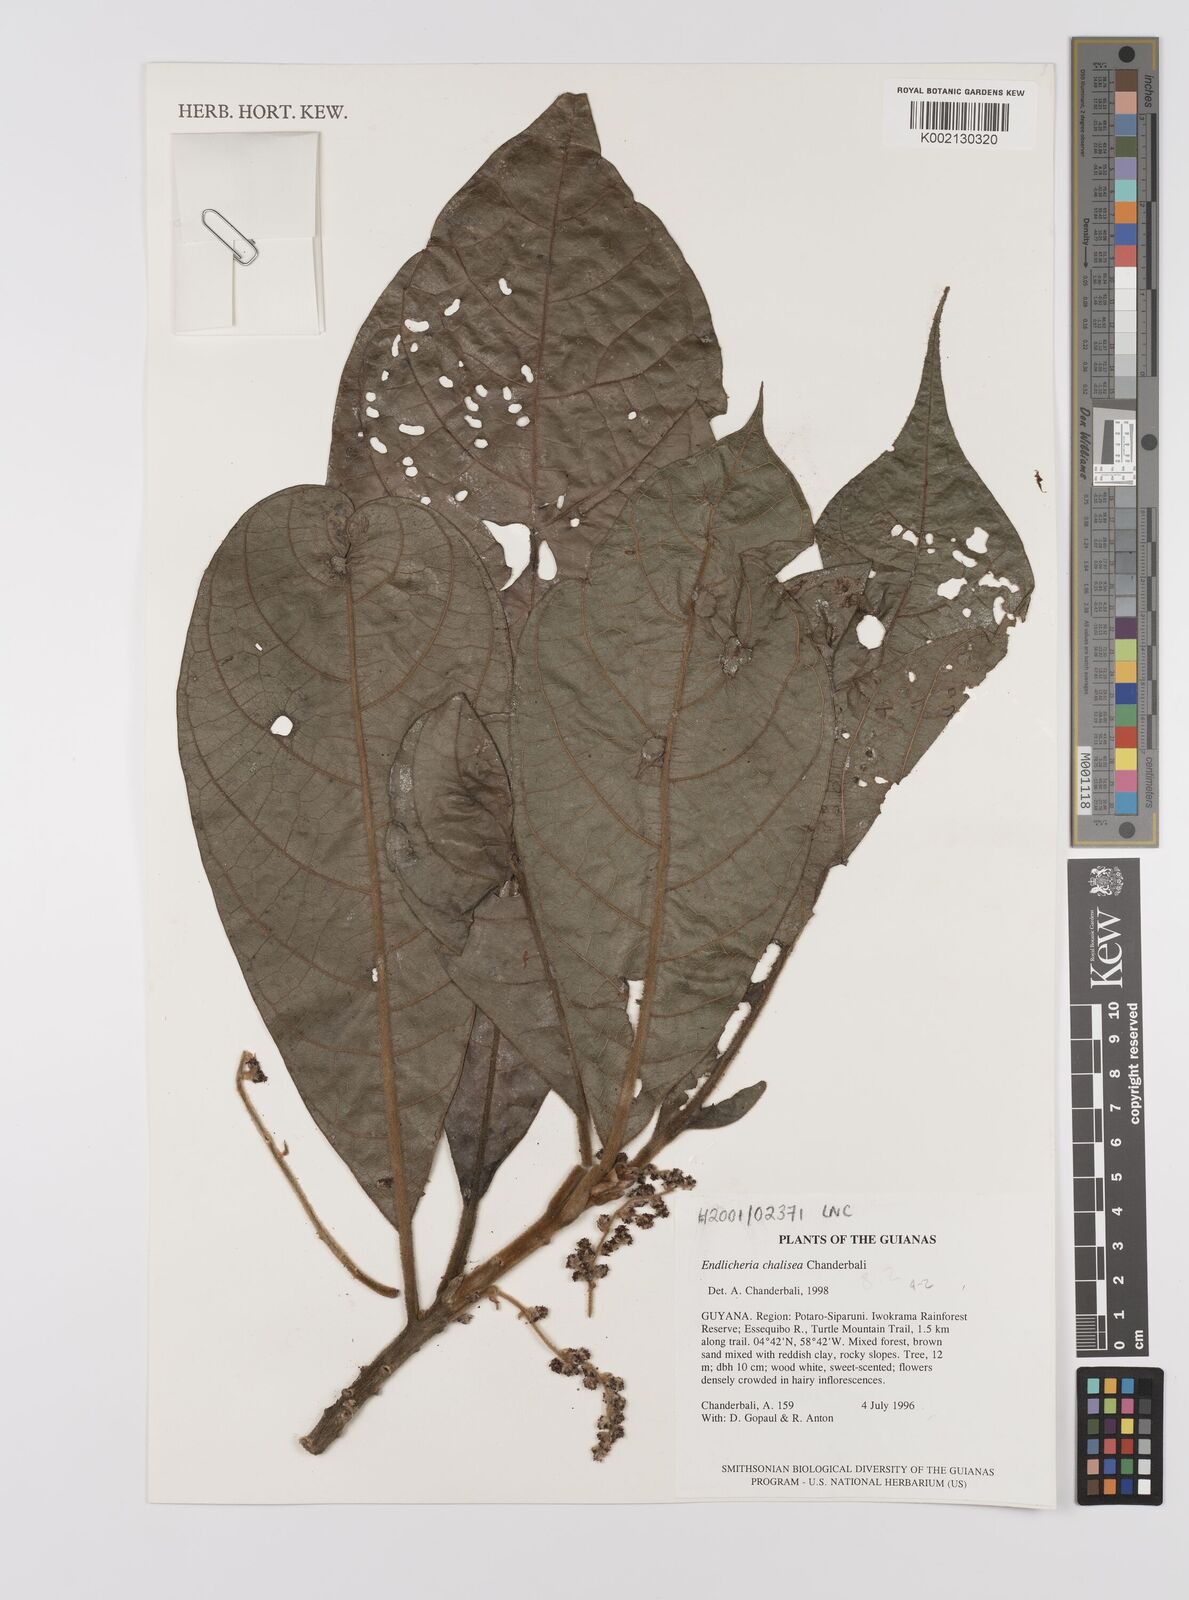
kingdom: Plantae
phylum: Tracheophyta
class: Magnoliopsida
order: Laurales
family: Lauraceae
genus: Endlicheria
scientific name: Endlicheria chalisea
